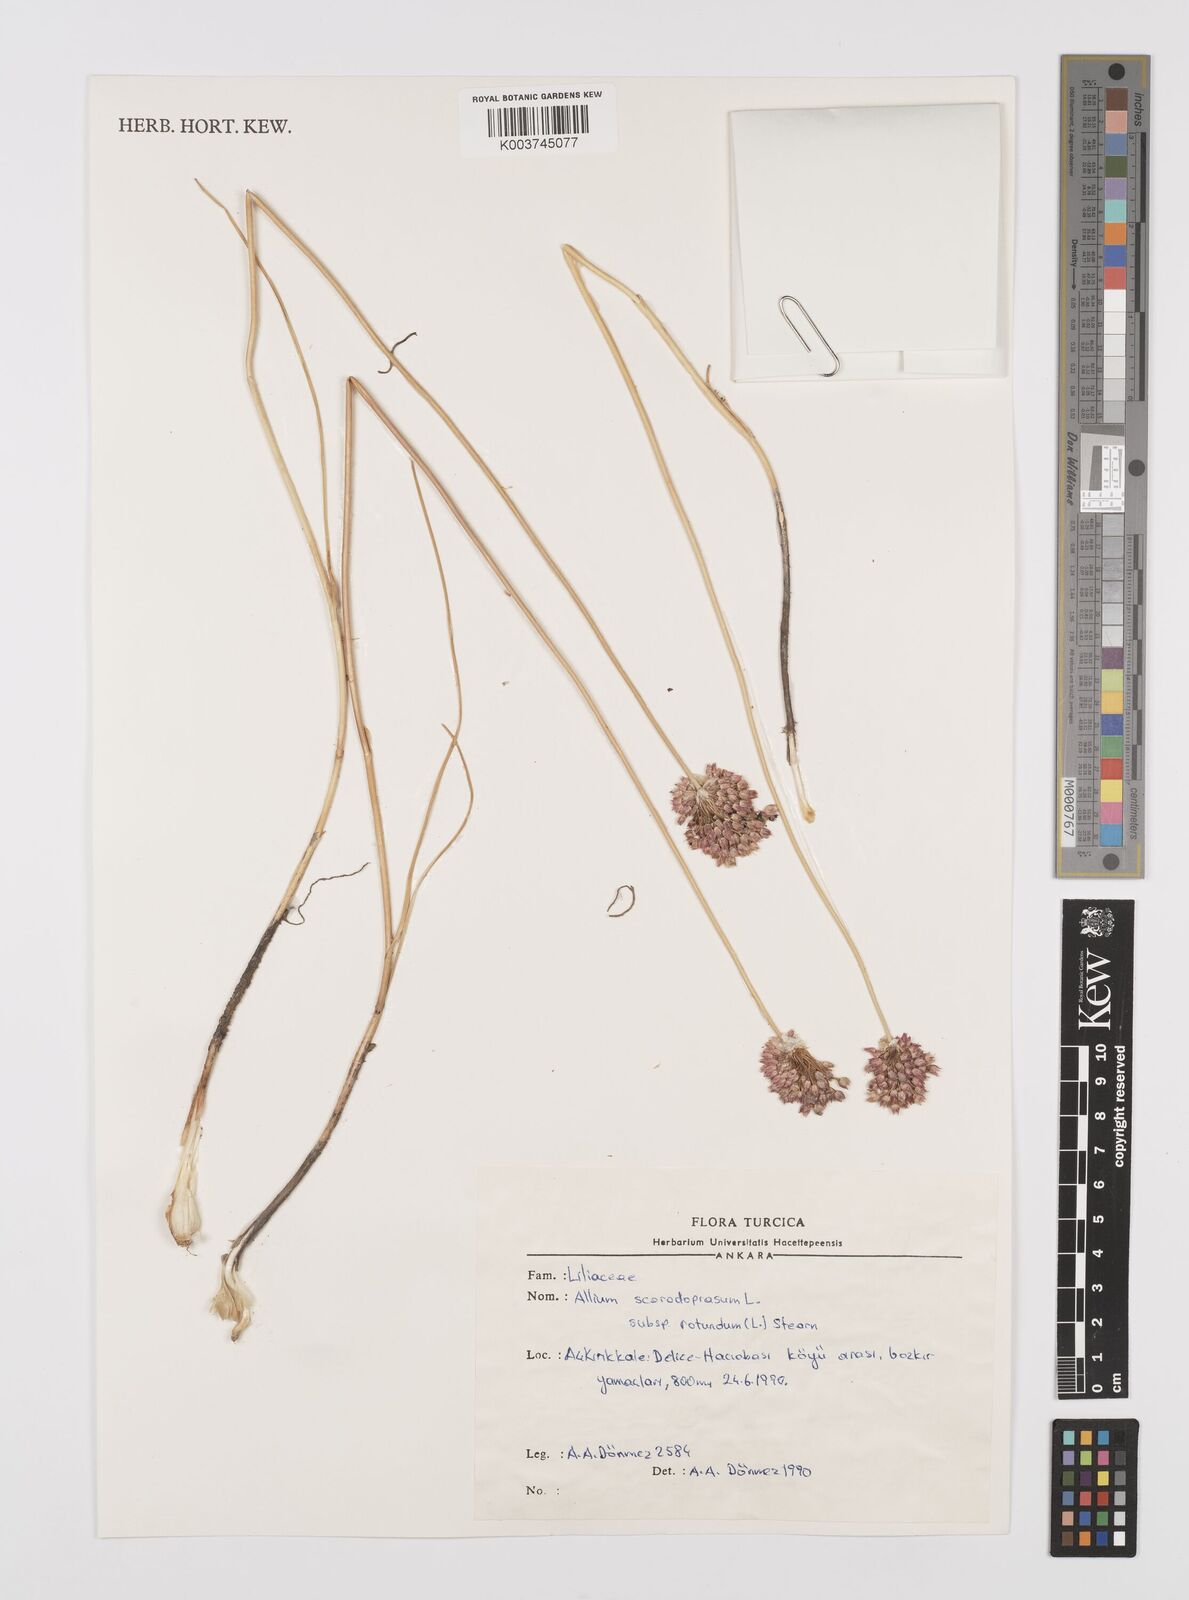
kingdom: Plantae
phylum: Tracheophyta
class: Liliopsida
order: Asparagales
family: Amaryllidaceae
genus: Allium
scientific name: Allium rotundum
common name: Sand leek
